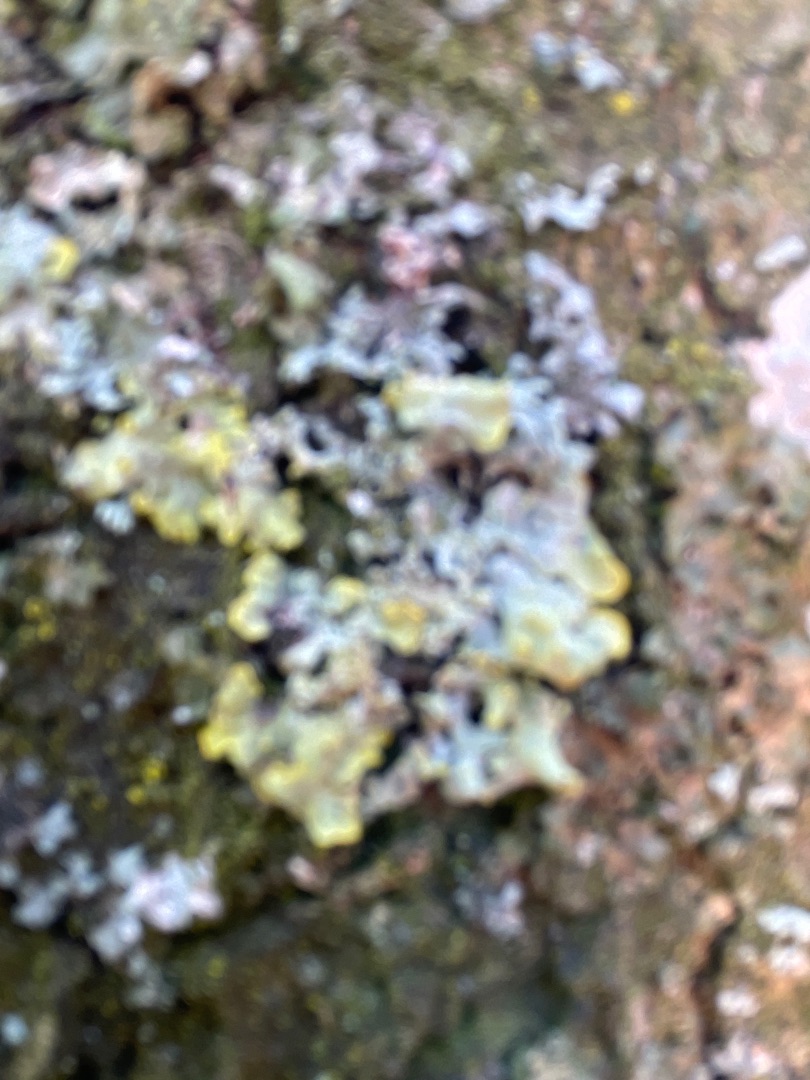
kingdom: Fungi
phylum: Ascomycota
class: Lecanoromycetes
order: Teloschistales
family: Teloschistaceae
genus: Xanthoria
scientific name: Xanthoria parietina
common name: Almindelig væggelav
